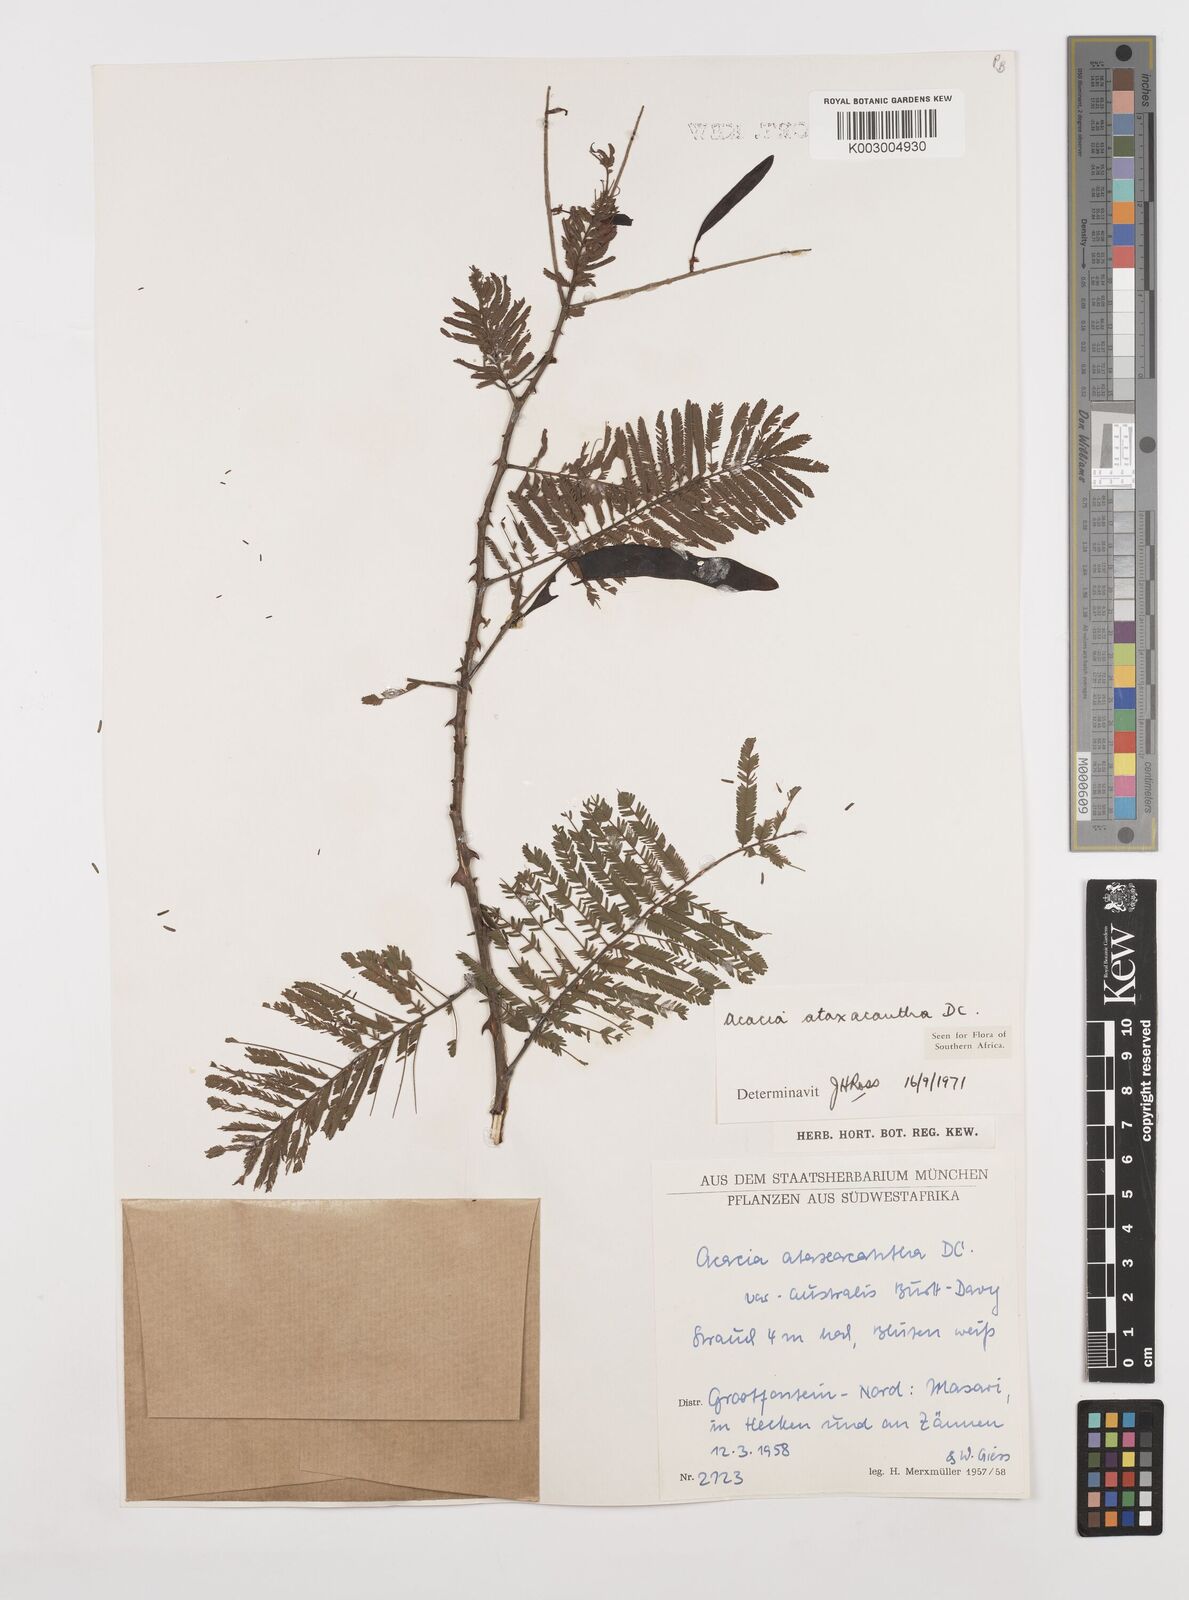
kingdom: Plantae
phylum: Tracheophyta
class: Magnoliopsida
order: Fabales
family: Fabaceae
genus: Senegalia
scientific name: Senegalia ataxacantha
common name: Flame acacia
